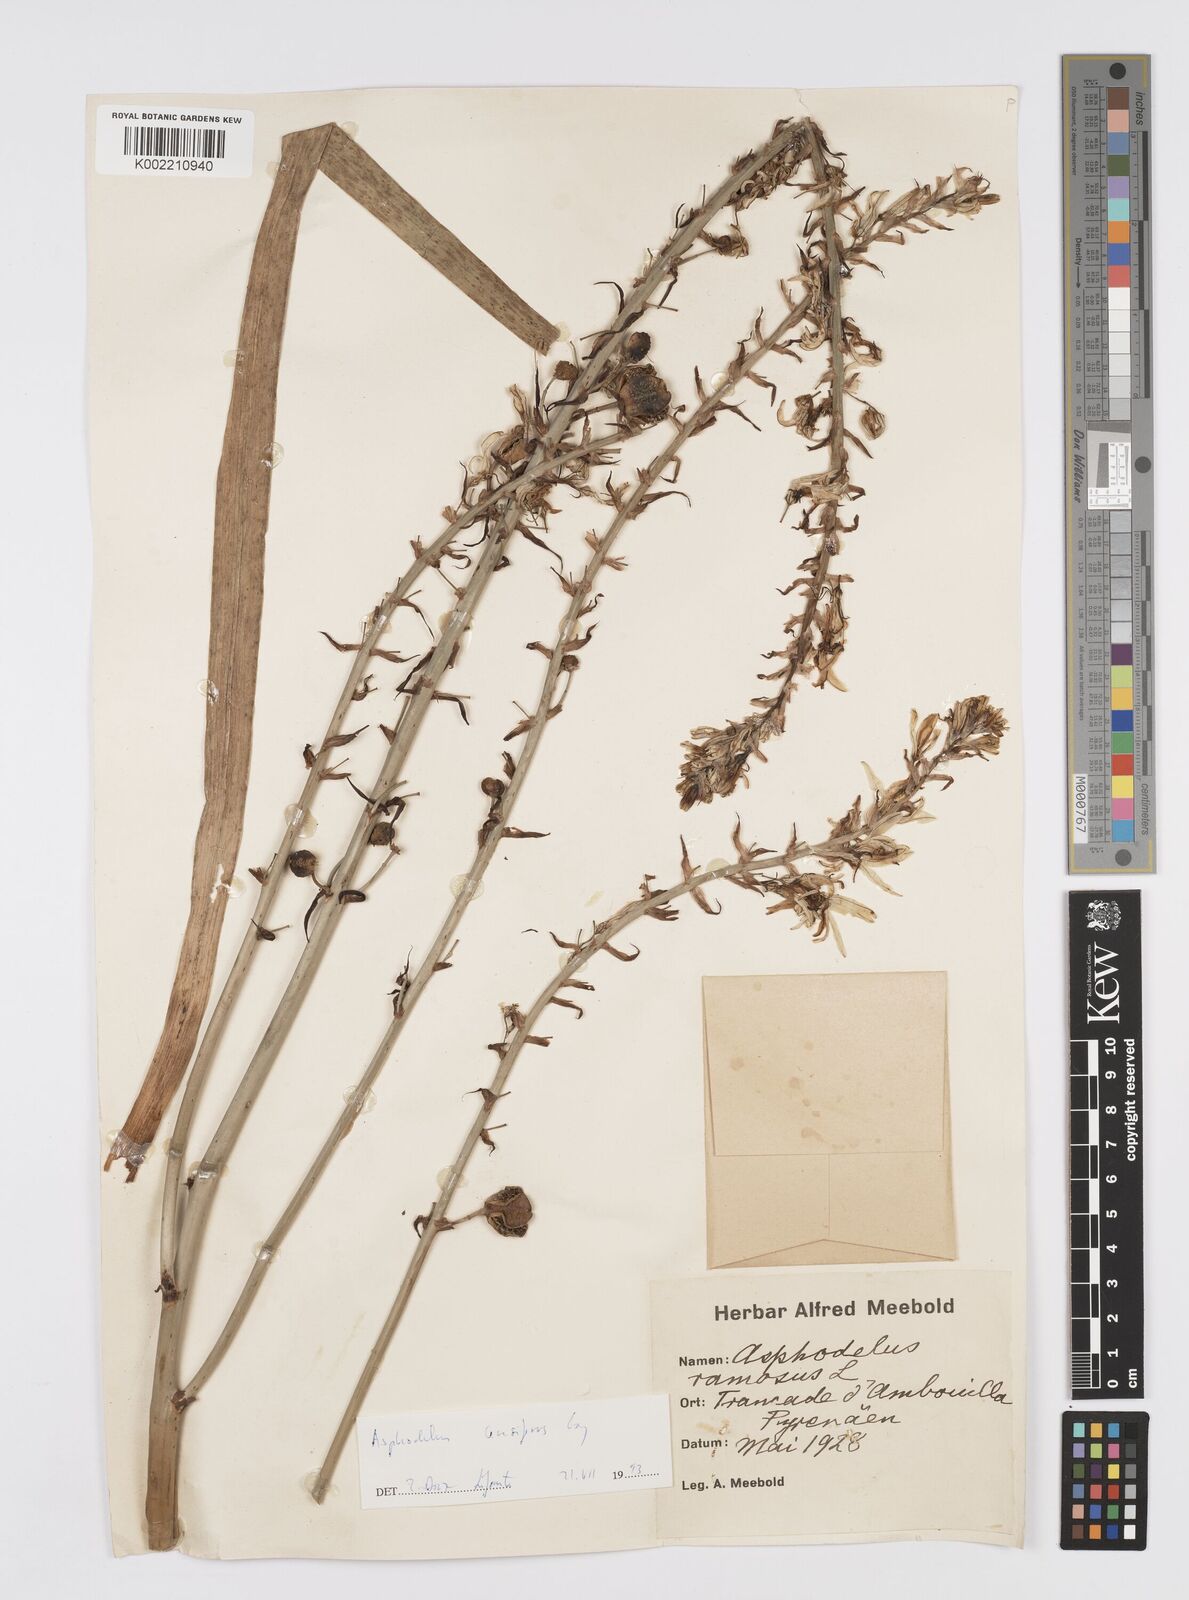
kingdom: Plantae
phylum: Tracheophyta
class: Liliopsida
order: Asparagales
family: Asphodelaceae
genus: Asphodelus
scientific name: Asphodelus ramosus
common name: Silverrod
